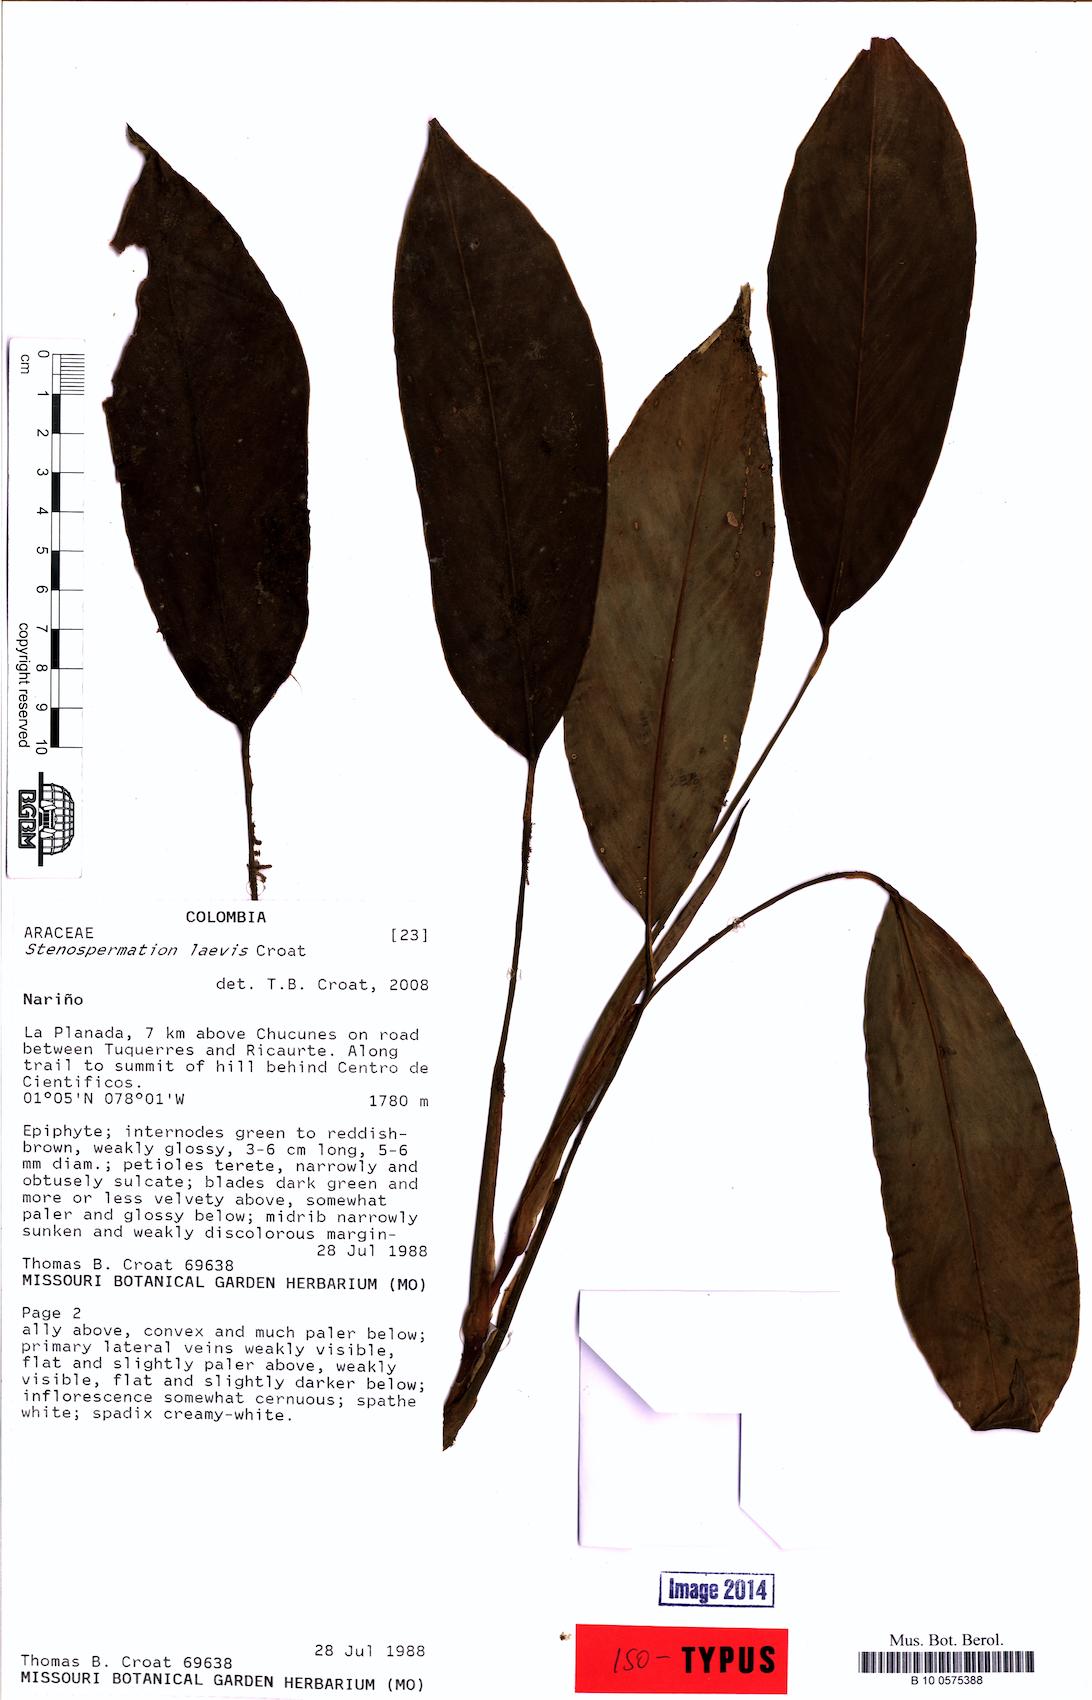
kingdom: Plantae
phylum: Tracheophyta
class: Liliopsida
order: Alismatales
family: Araceae
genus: Stenospermation
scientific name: Stenospermation laevis
